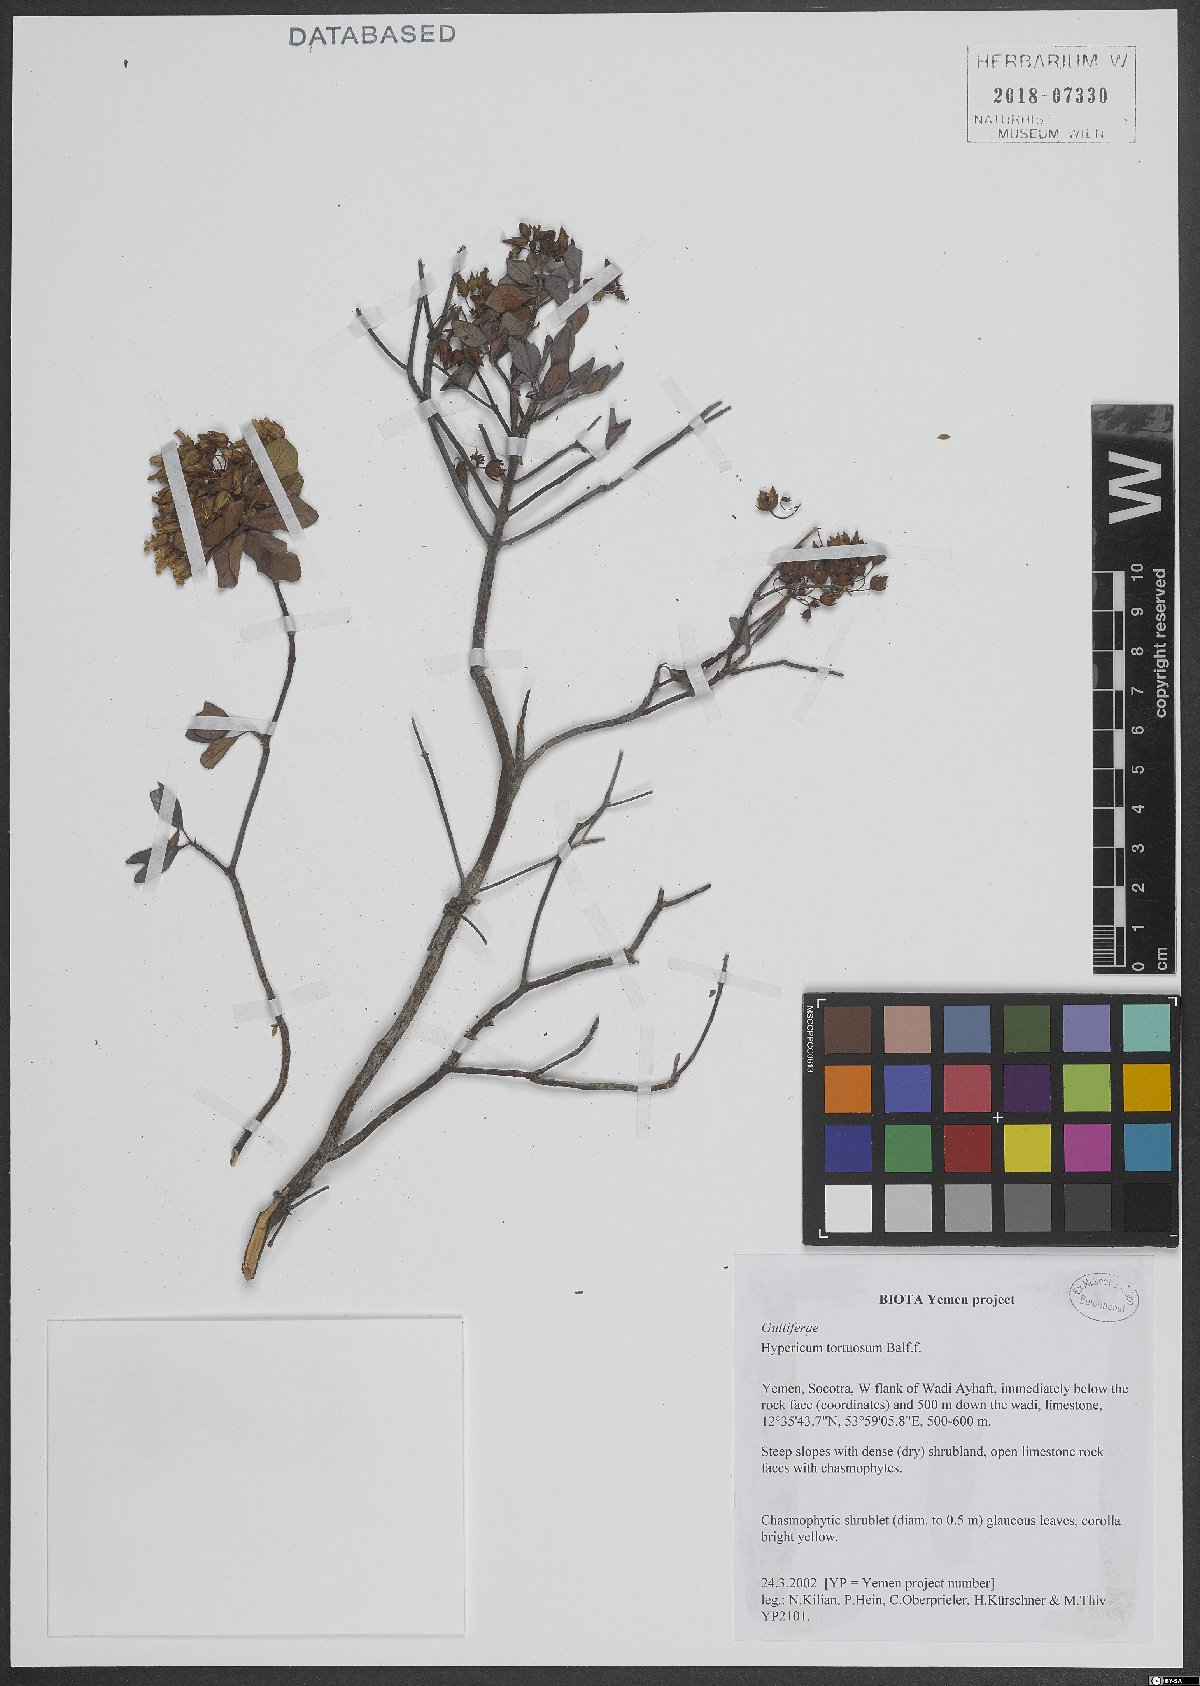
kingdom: Plantae
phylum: Tracheophyta
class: Magnoliopsida
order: Malpighiales
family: Hypericaceae
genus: Hypericum
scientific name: Hypericum tortuosum
